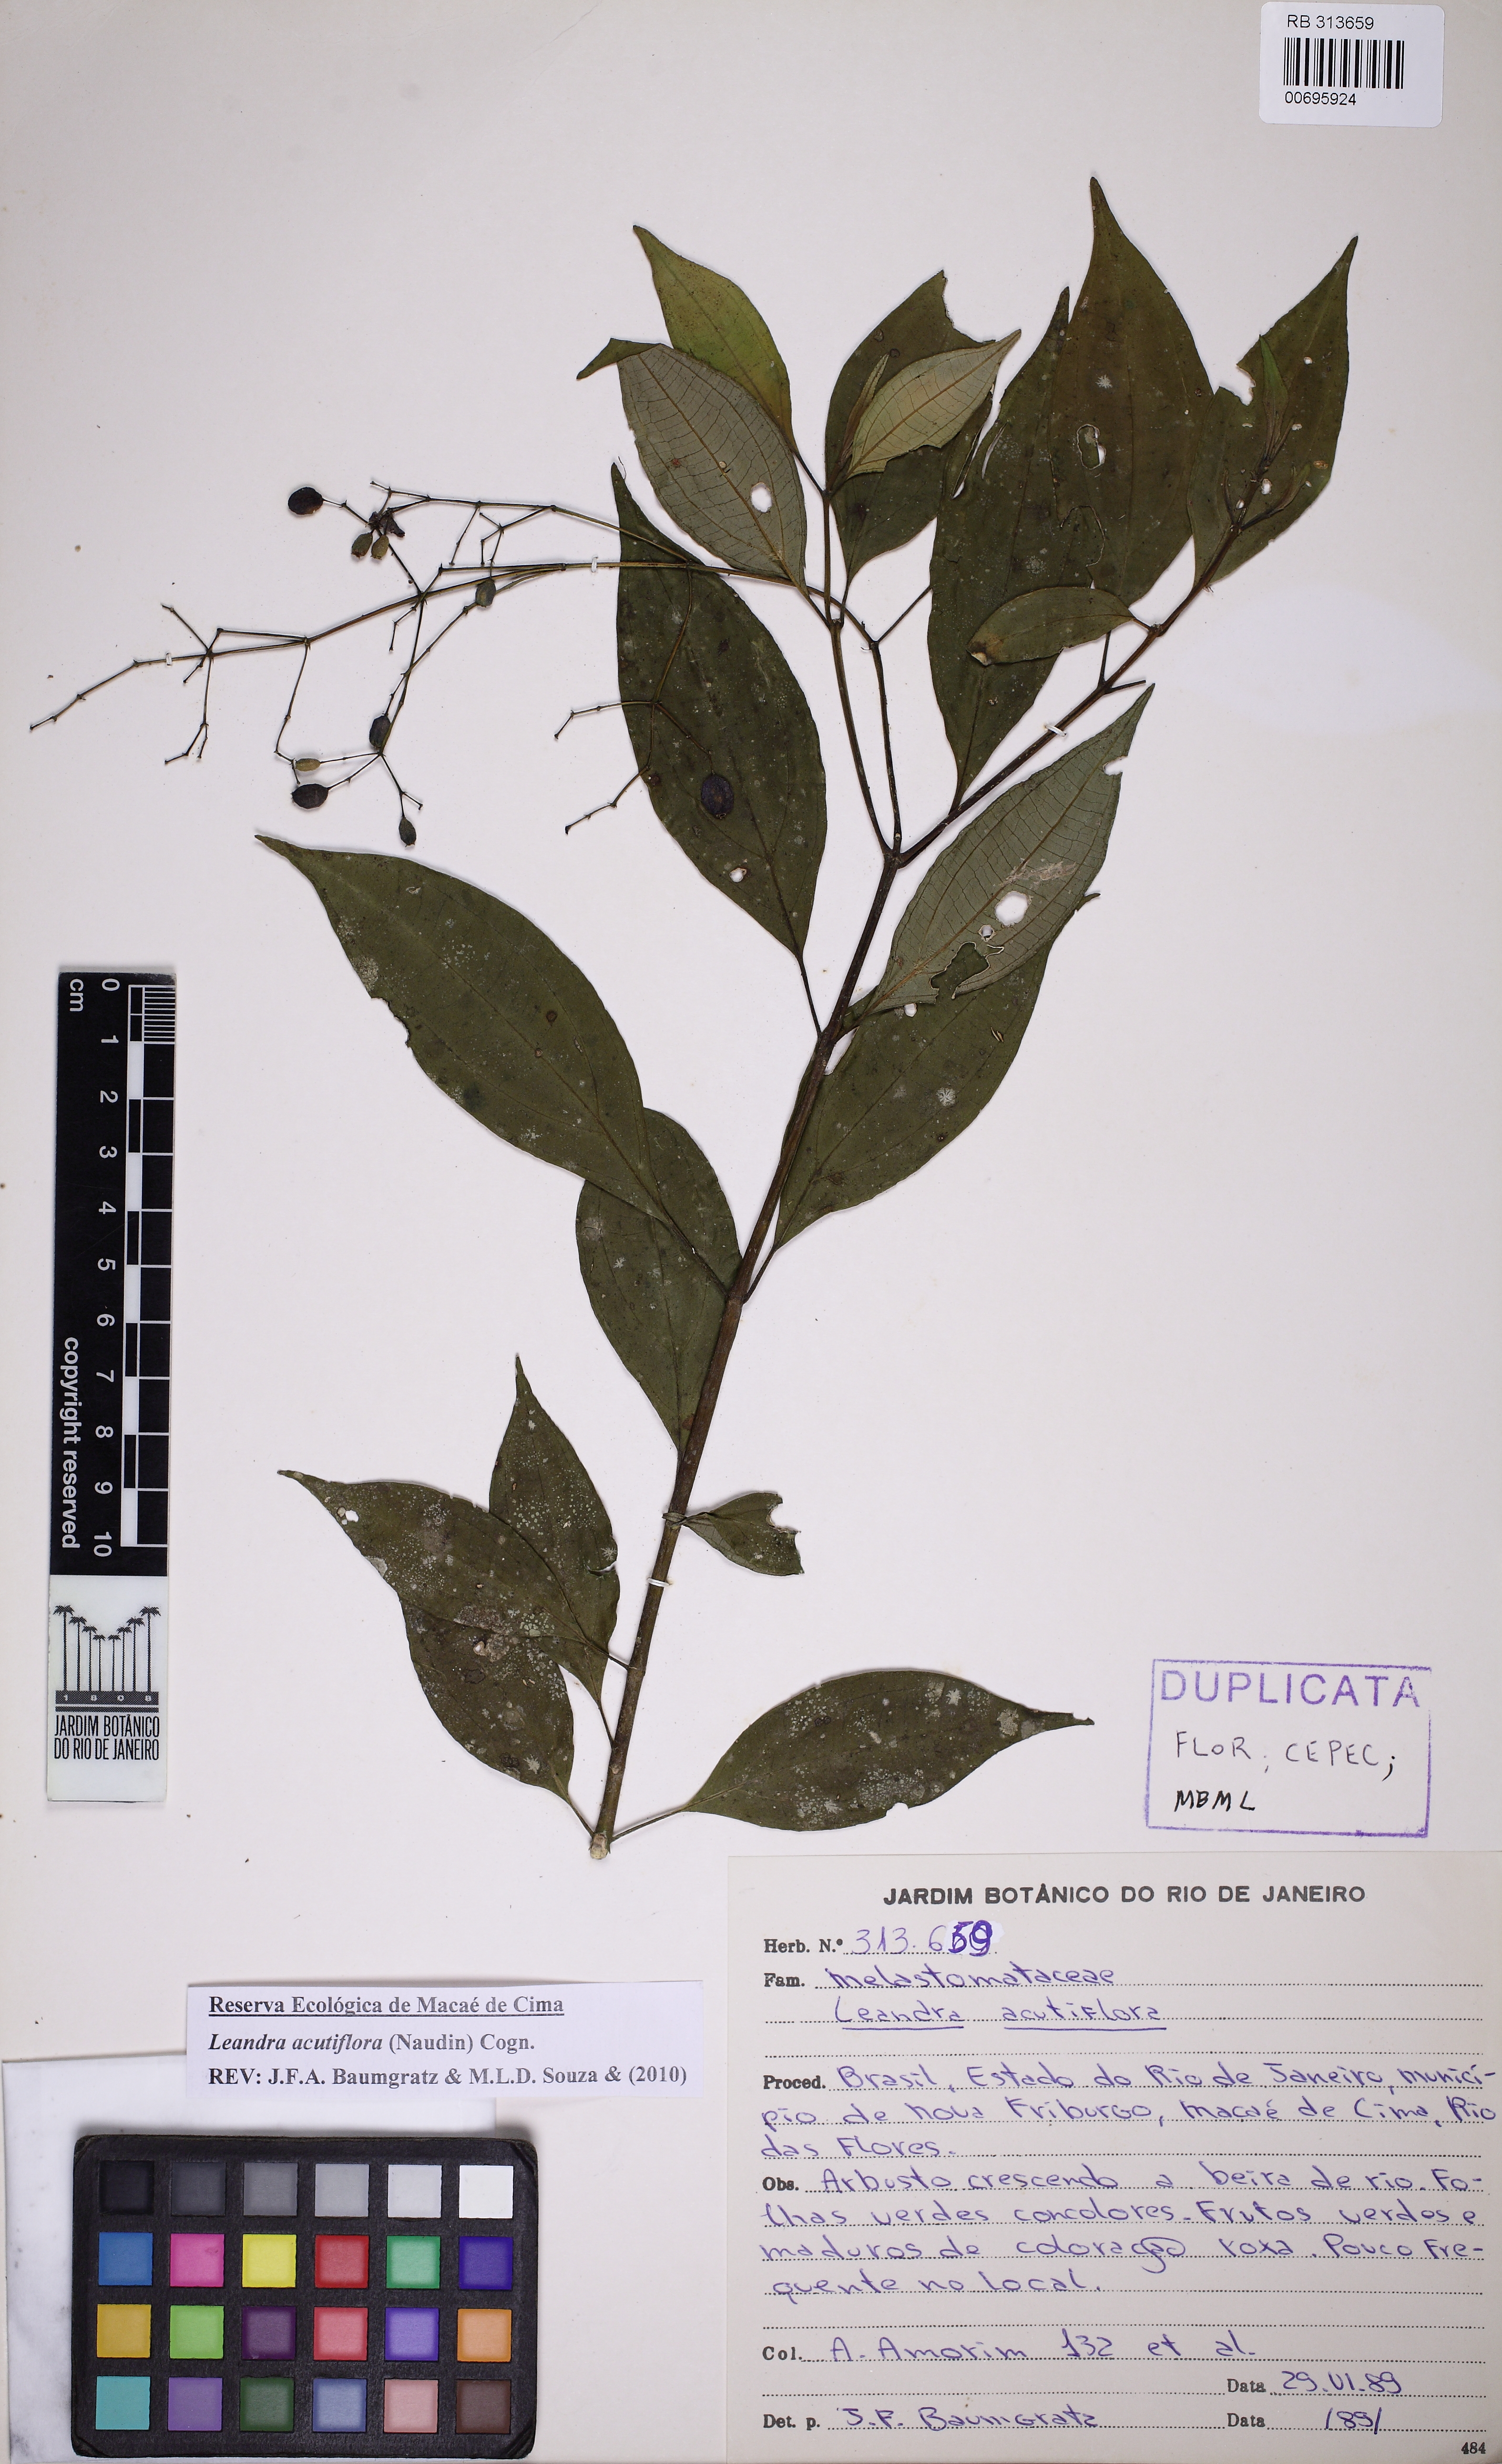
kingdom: Plantae
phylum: Tracheophyta
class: Magnoliopsida
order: Myrtales
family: Melastomataceae
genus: Miconia
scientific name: Miconia acutiflora
